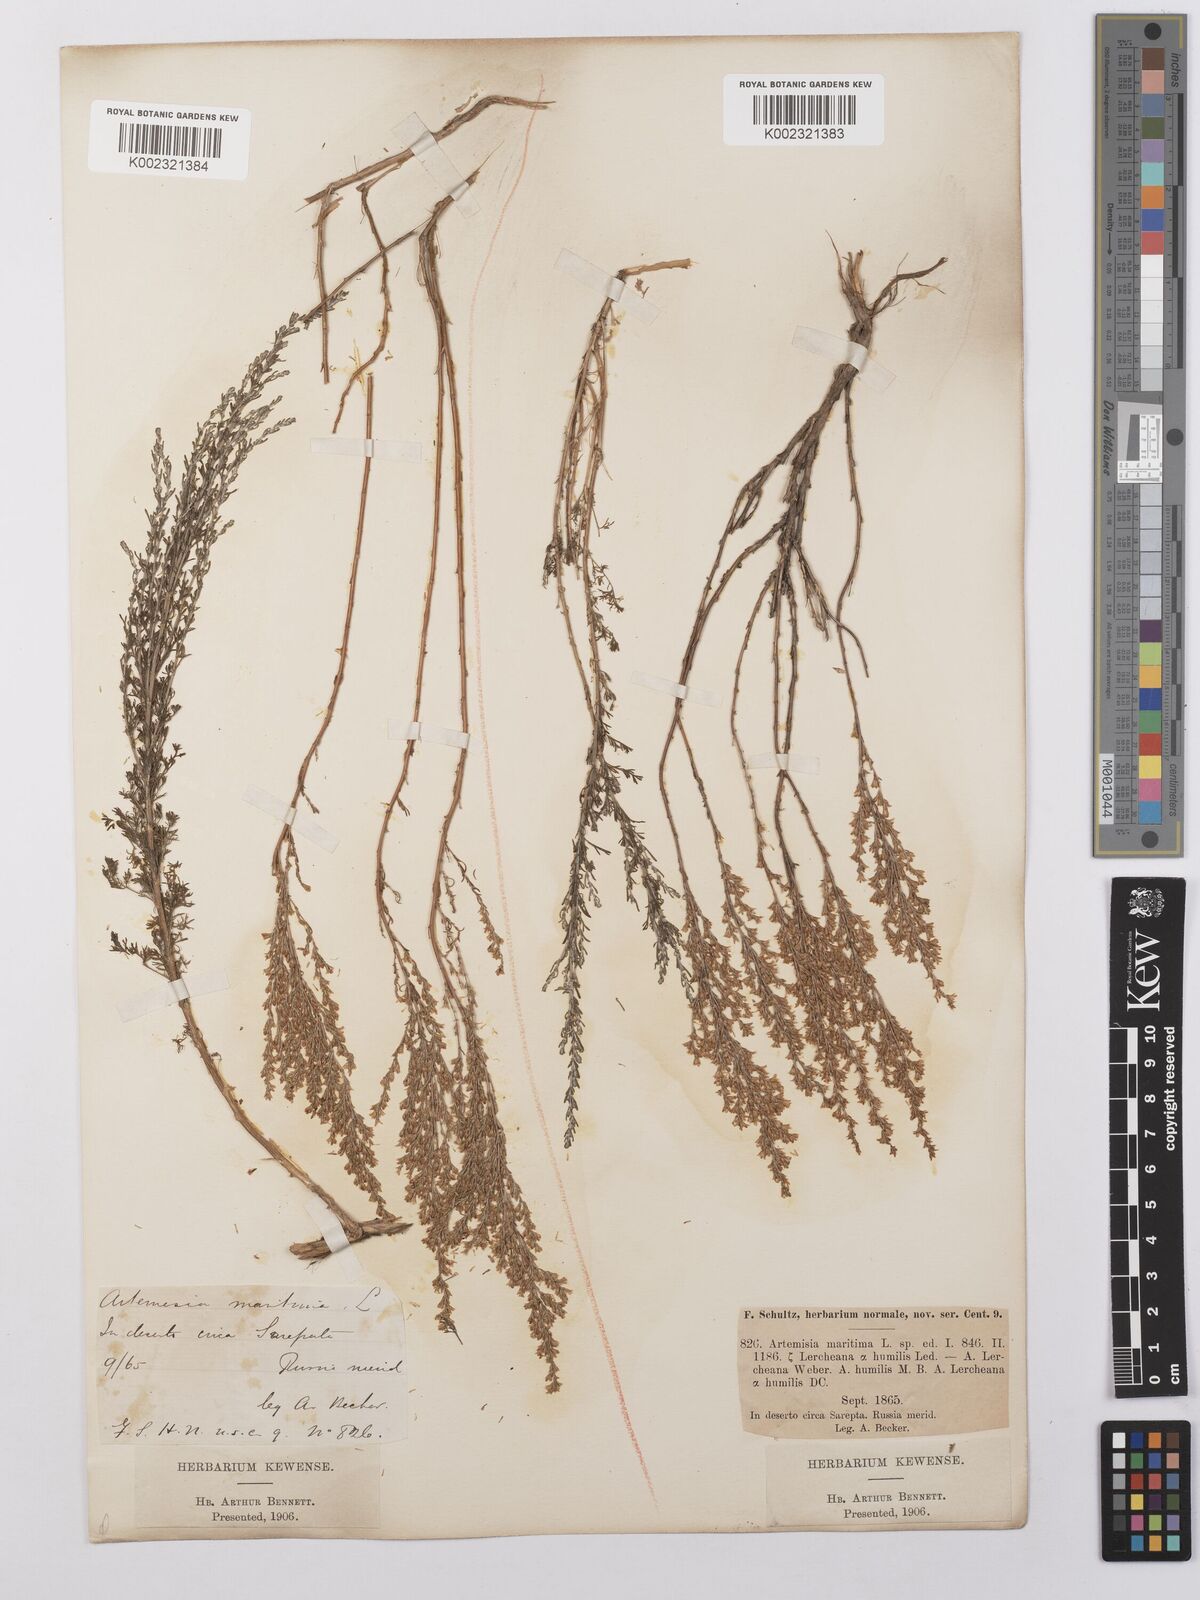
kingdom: Plantae
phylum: Tracheophyta
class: Magnoliopsida
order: Asterales
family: Asteraceae
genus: Artemisia
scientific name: Artemisia pauciflora
